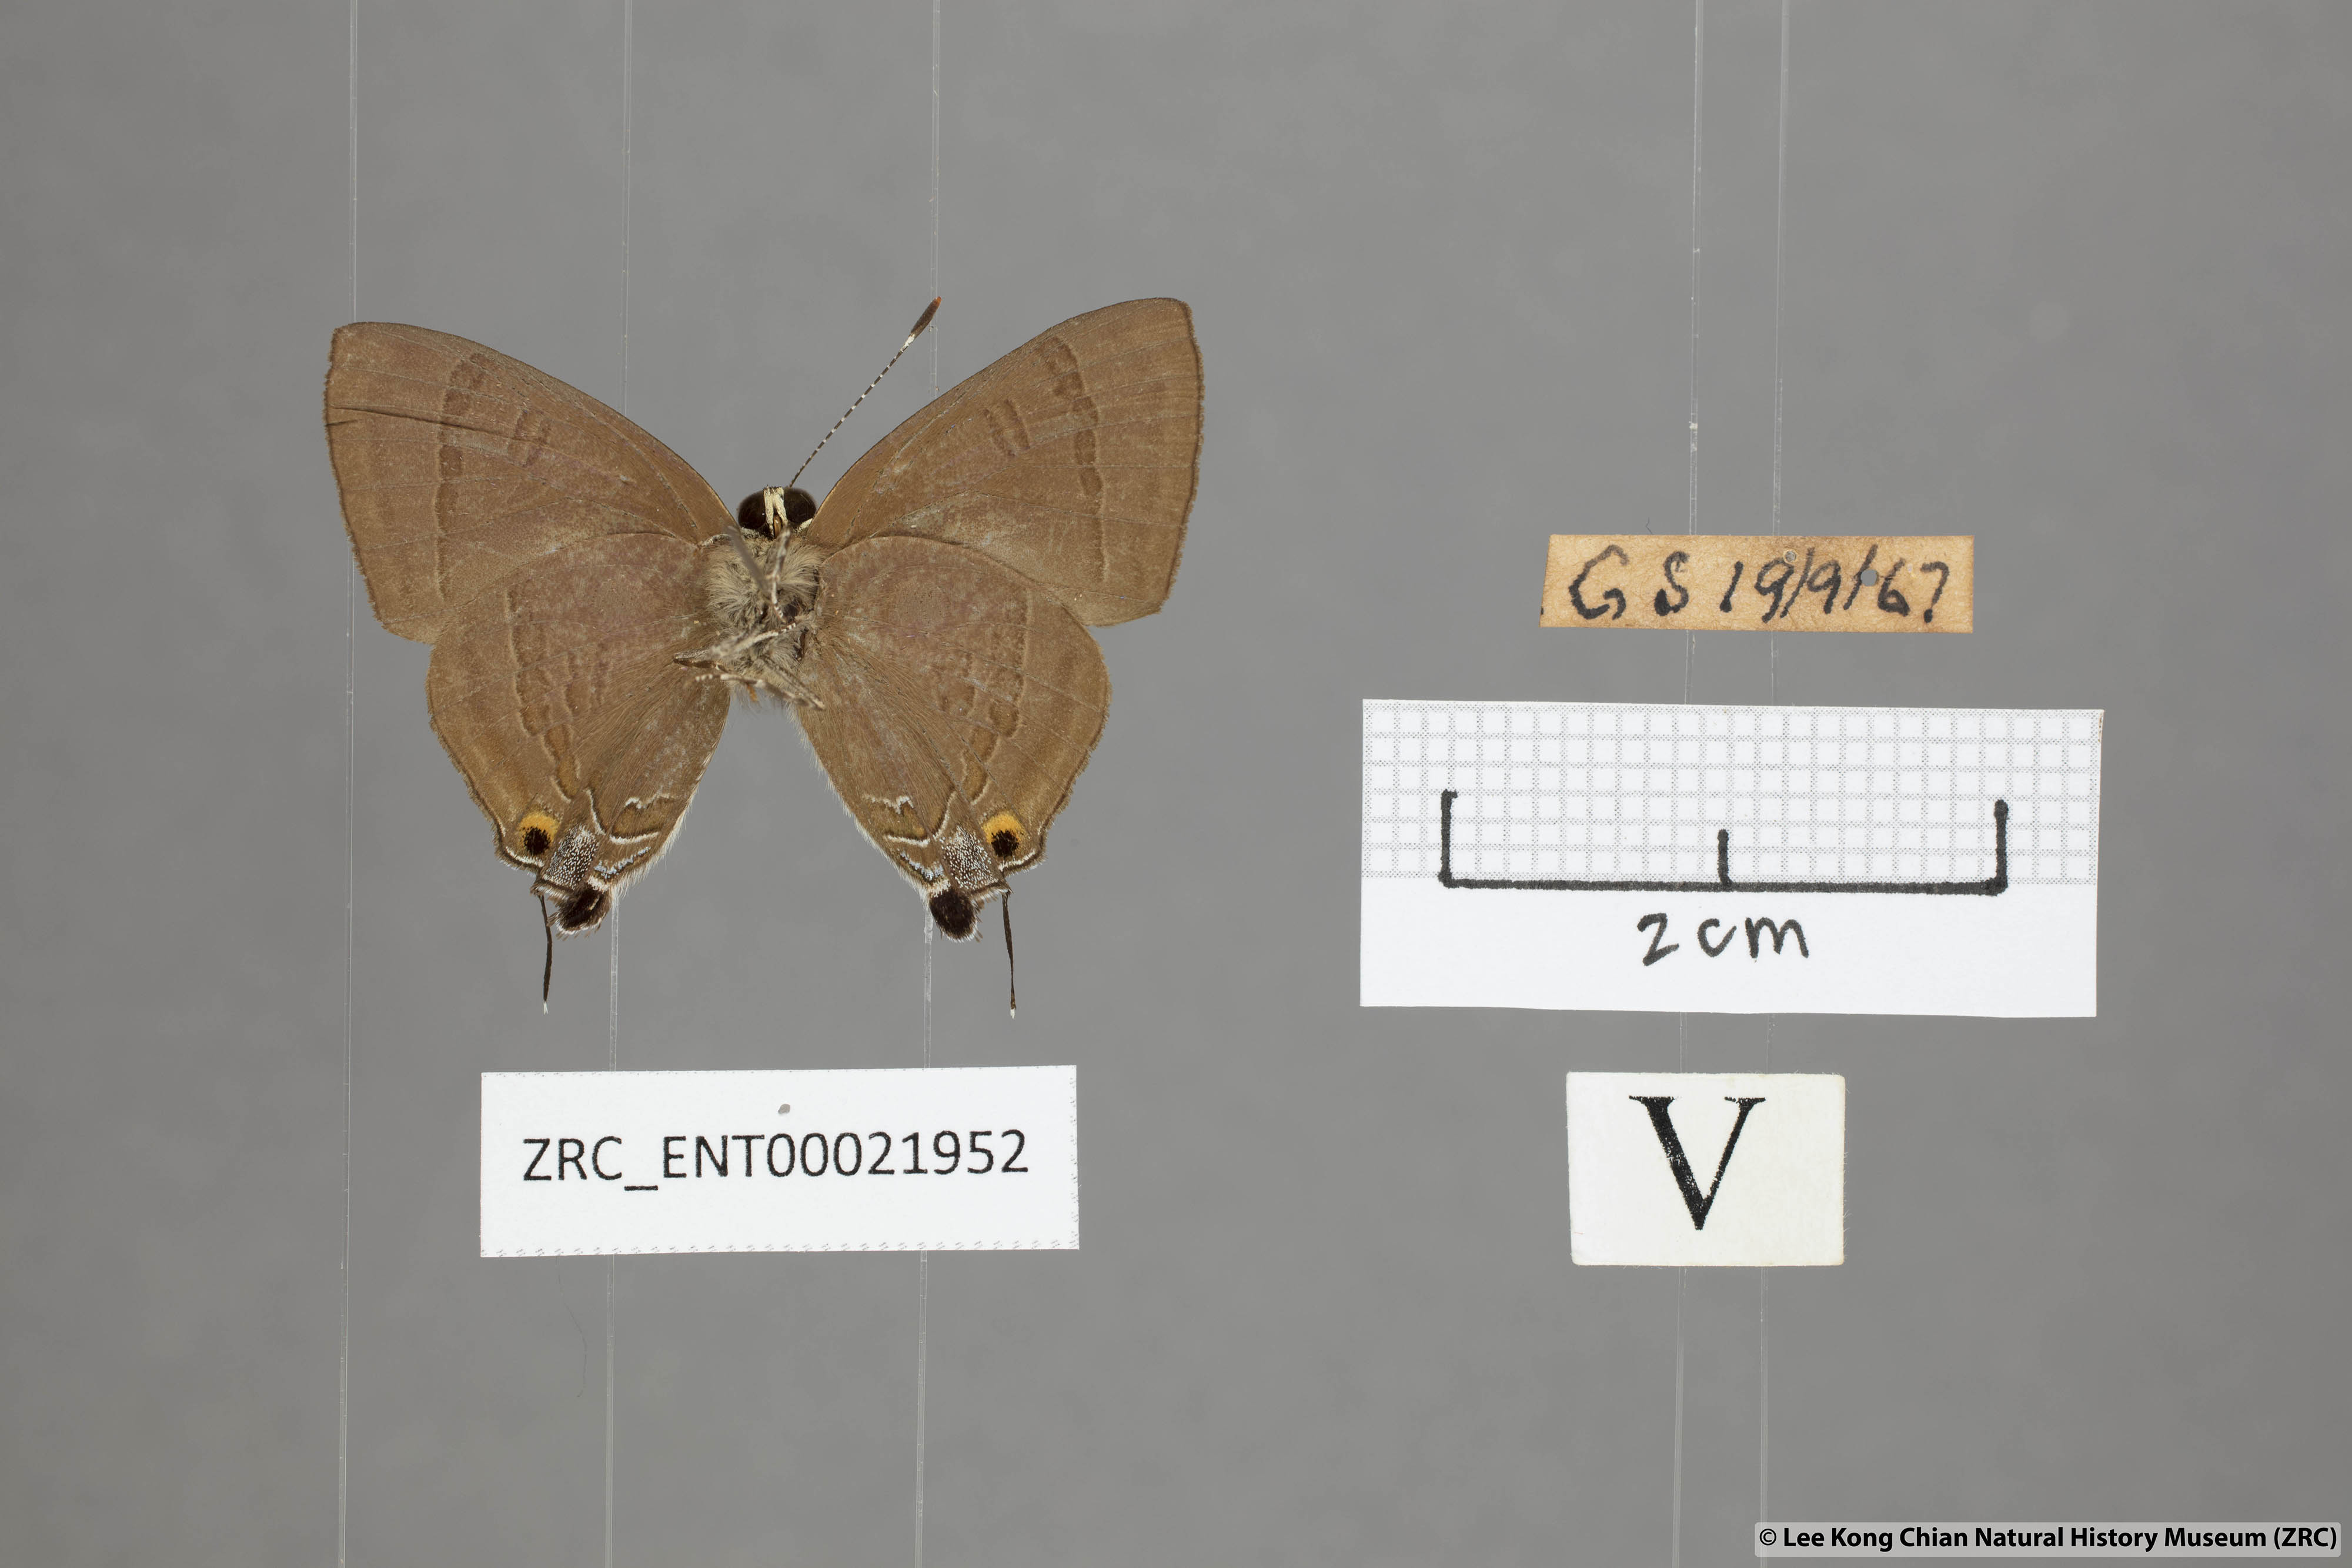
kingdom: Animalia
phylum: Arthropoda
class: Insecta
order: Lepidoptera
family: Lycaenidae
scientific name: Lycaenidae
